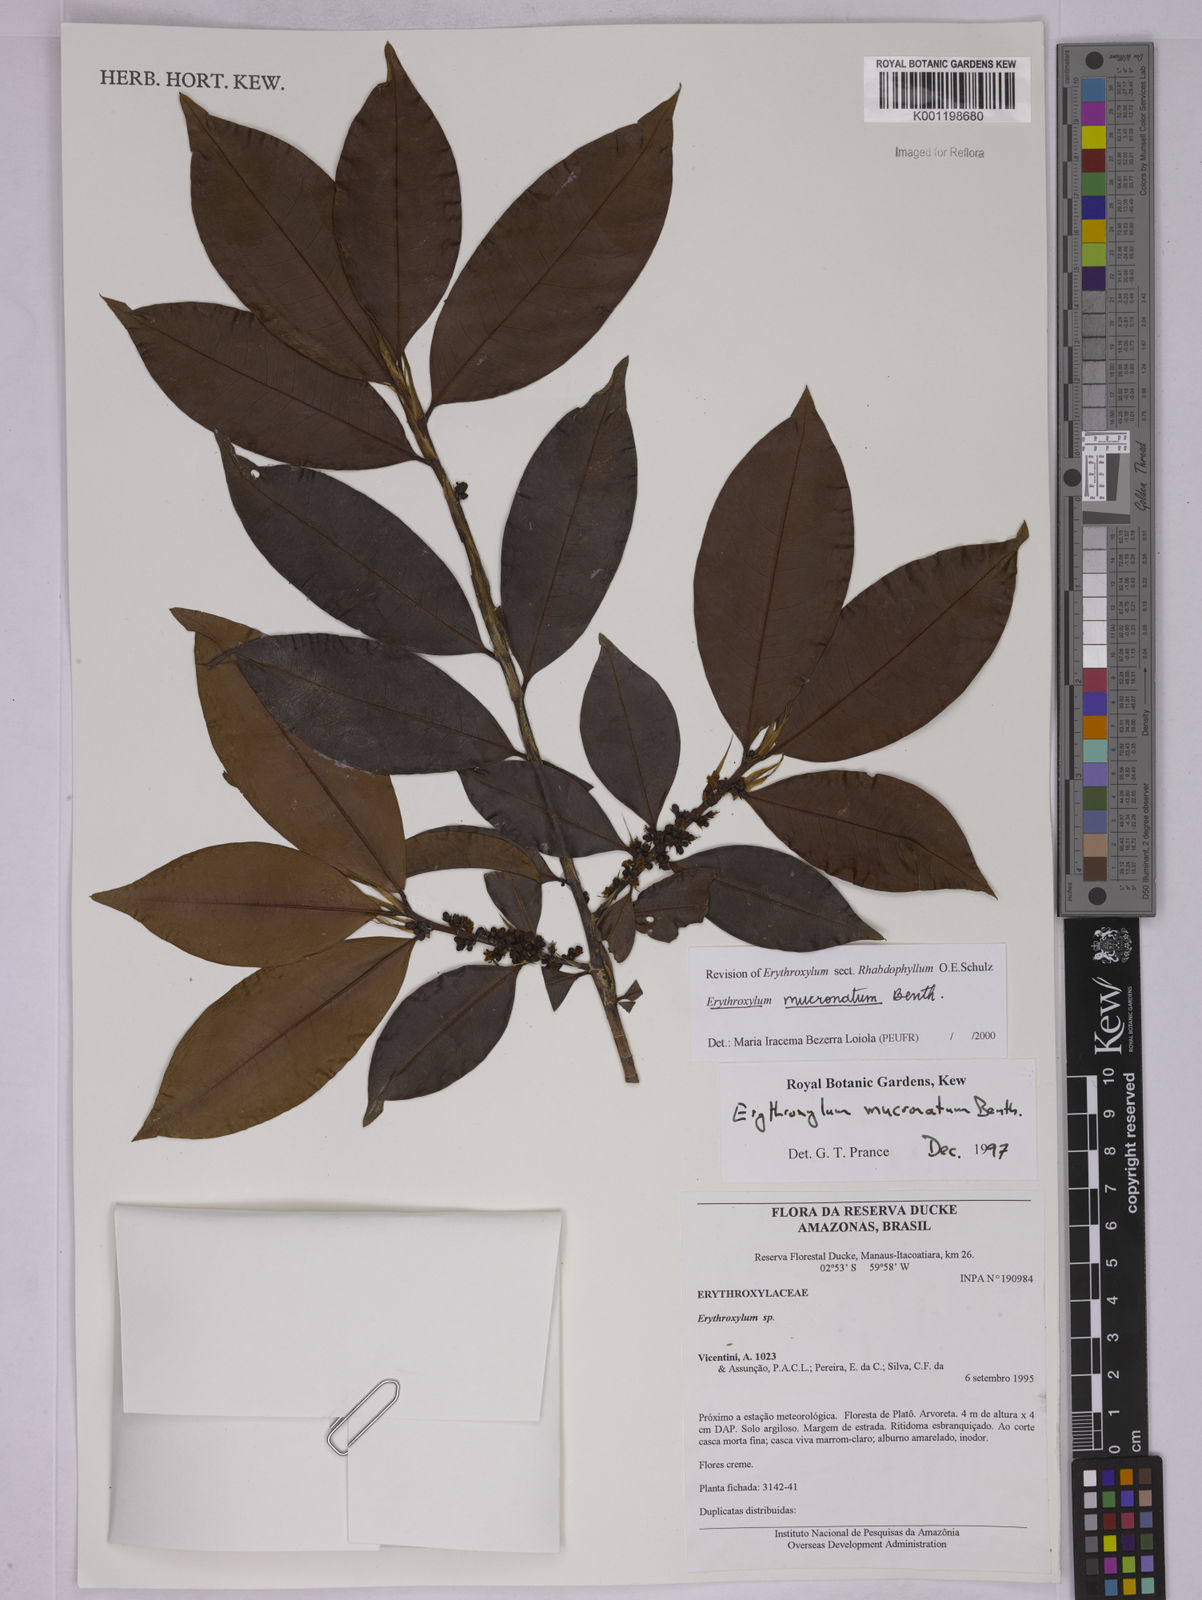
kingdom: Plantae
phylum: Tracheophyta
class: Magnoliopsida
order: Malpighiales
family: Erythroxylaceae
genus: Erythroxylum
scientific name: Erythroxylum mucronatum
